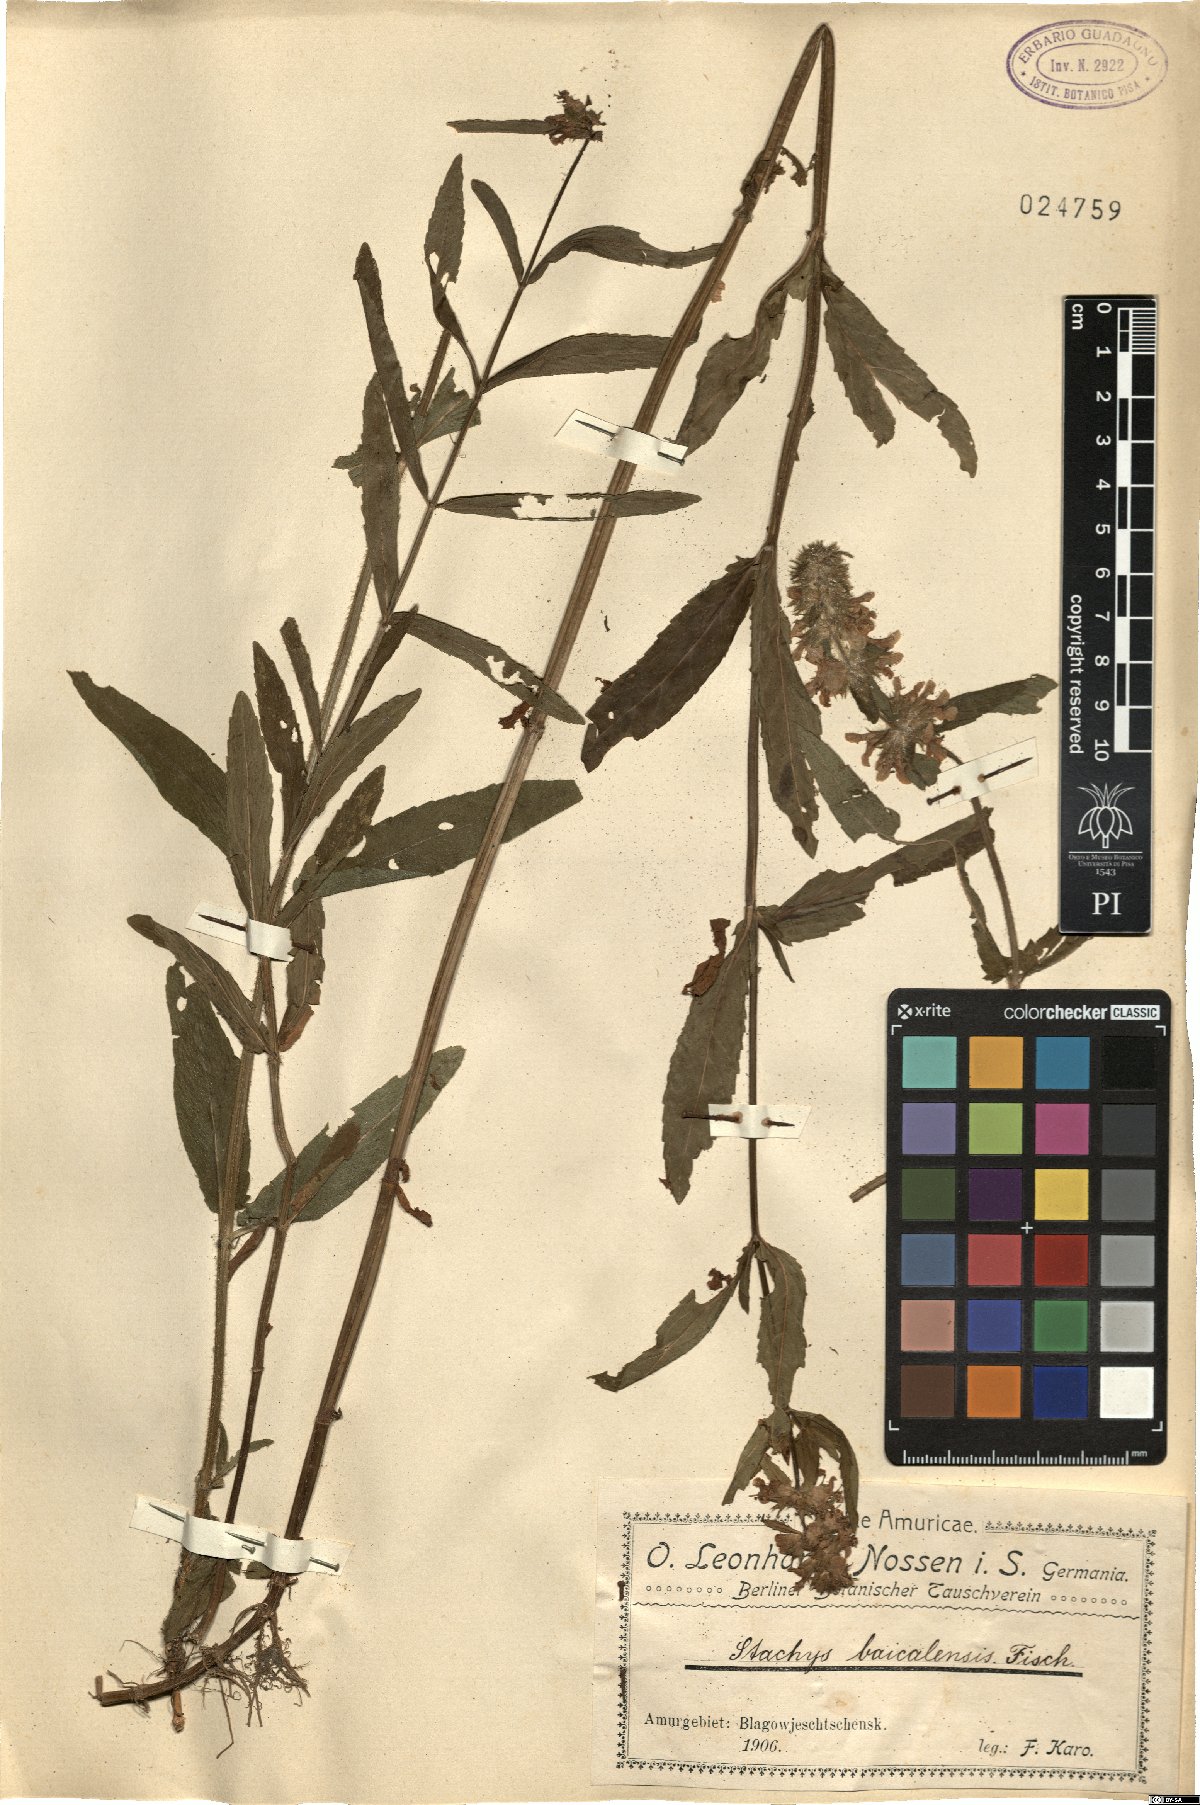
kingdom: Plantae
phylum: Tracheophyta
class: Magnoliopsida
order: Lamiales
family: Lamiaceae
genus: Stachys
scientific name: Stachys riederi
